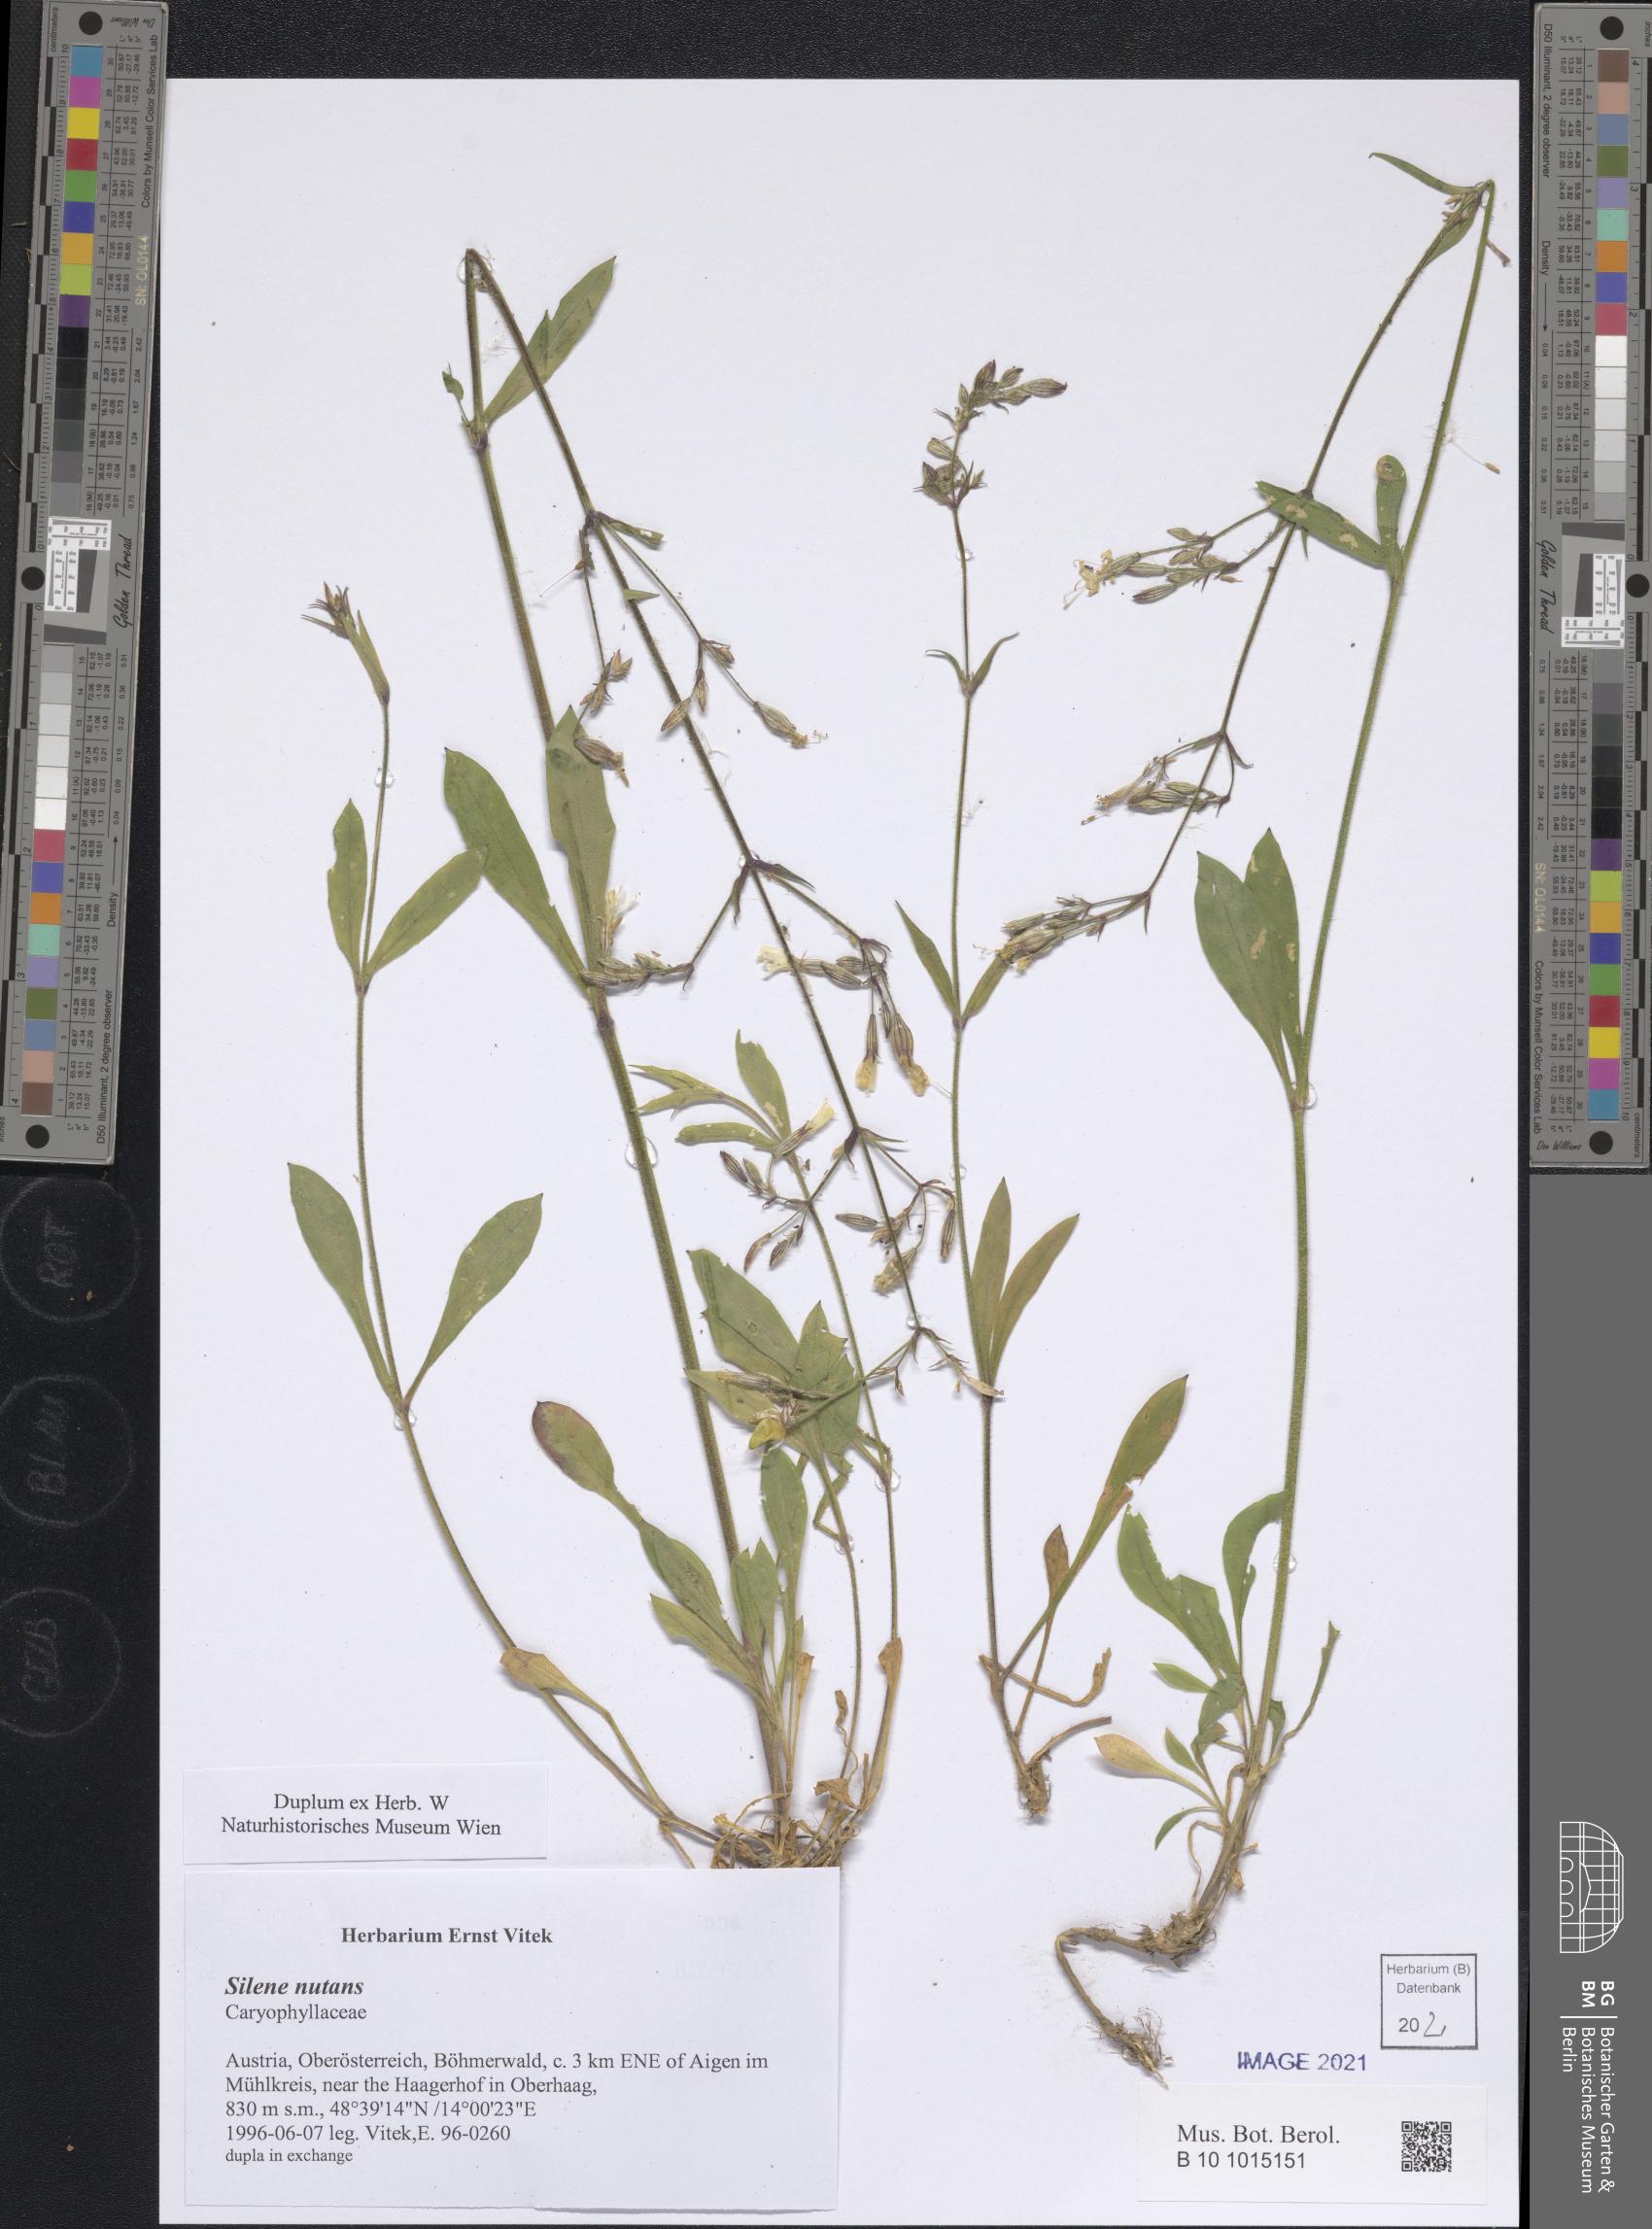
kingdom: Plantae
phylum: Tracheophyta
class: Magnoliopsida
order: Caryophyllales
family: Caryophyllaceae
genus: Silene
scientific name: Silene nutans
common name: Nottingham catchfly
